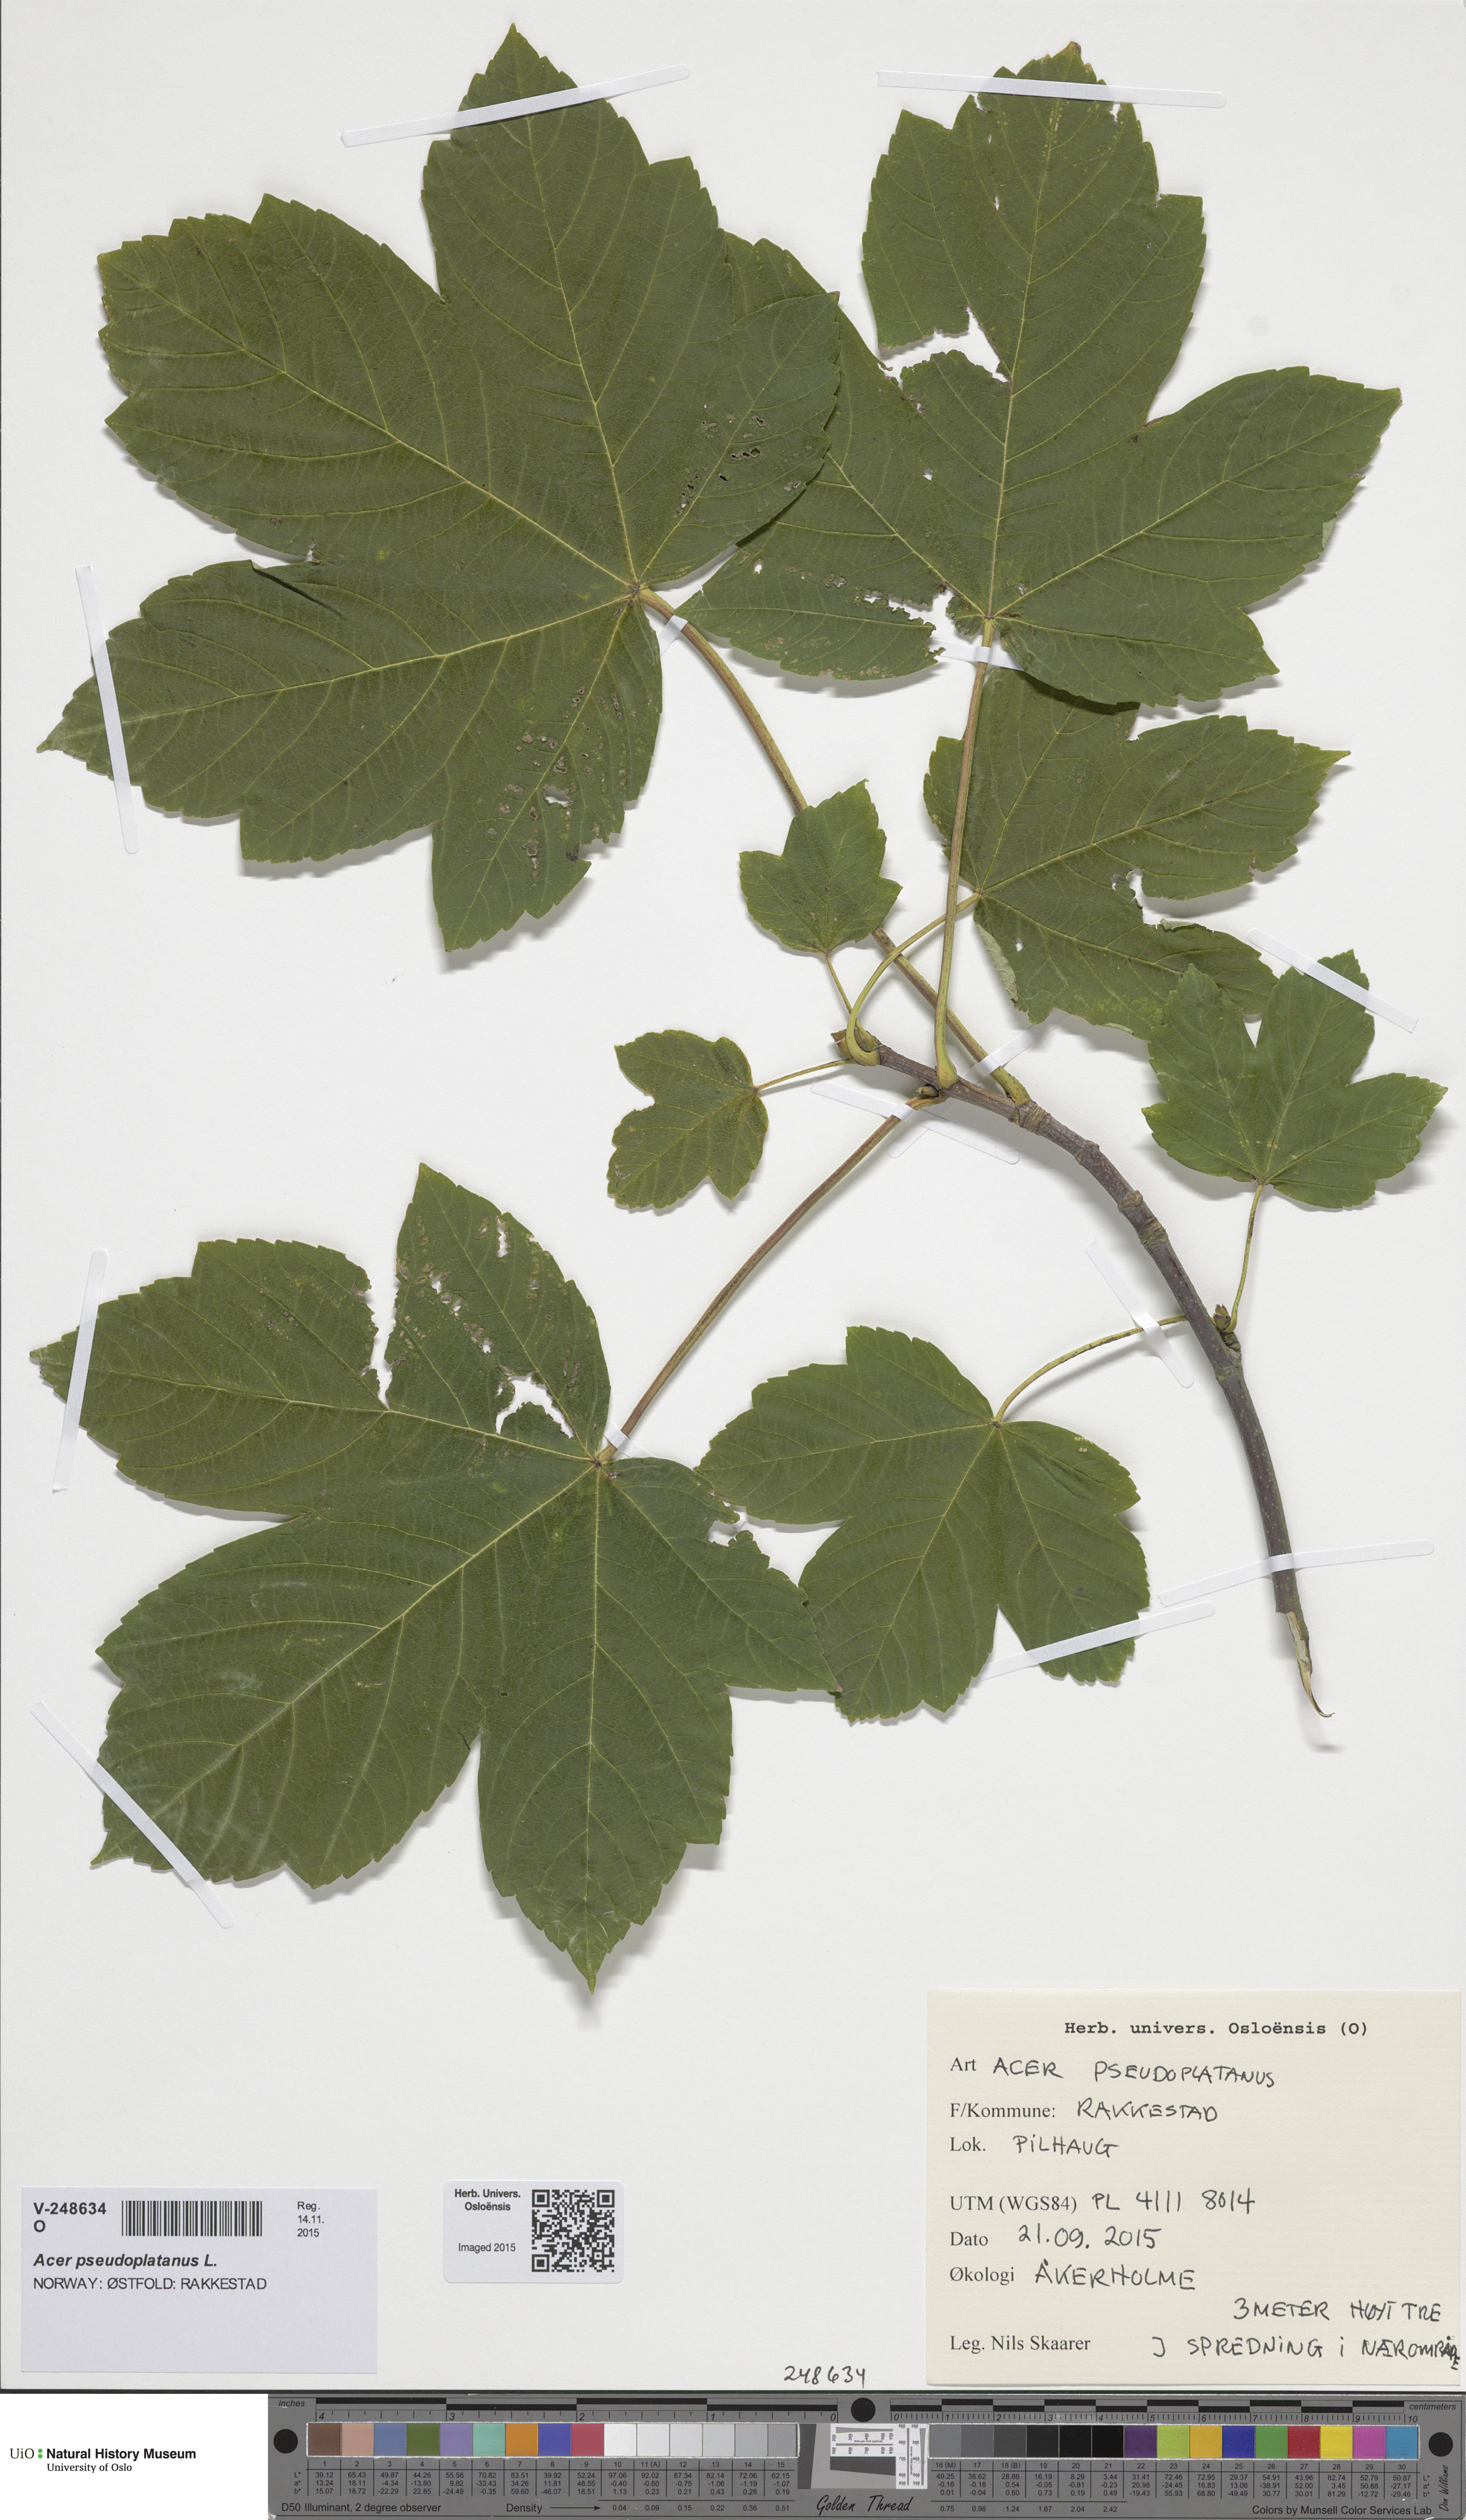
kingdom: Plantae
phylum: Tracheophyta
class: Magnoliopsida
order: Sapindales
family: Sapindaceae
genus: Acer
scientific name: Acer pseudoplatanus
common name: Sycamore
